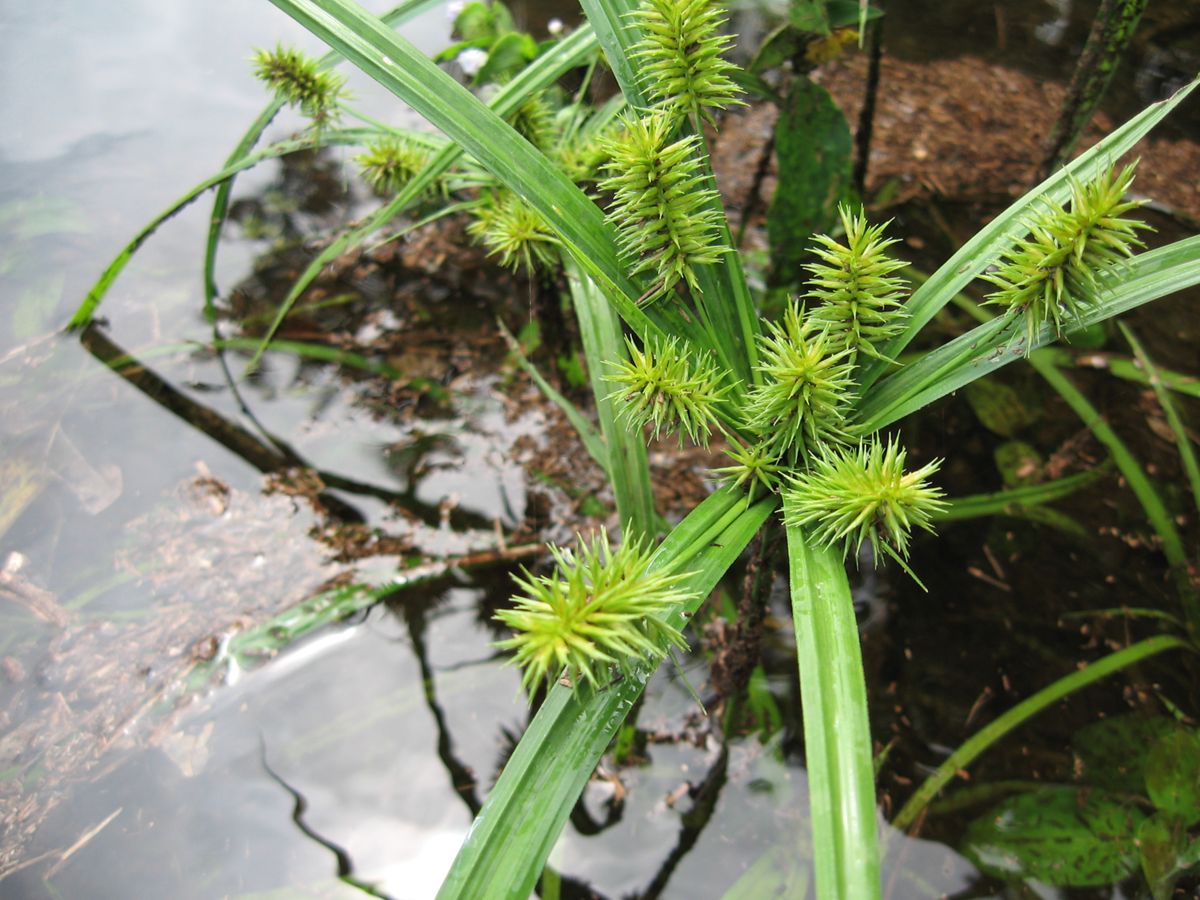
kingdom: Plantae
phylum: Tracheophyta
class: Liliopsida
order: Poales
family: Cyperaceae
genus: Cyperus
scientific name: Cyperus odoratus
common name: Fragrant flatsedge
